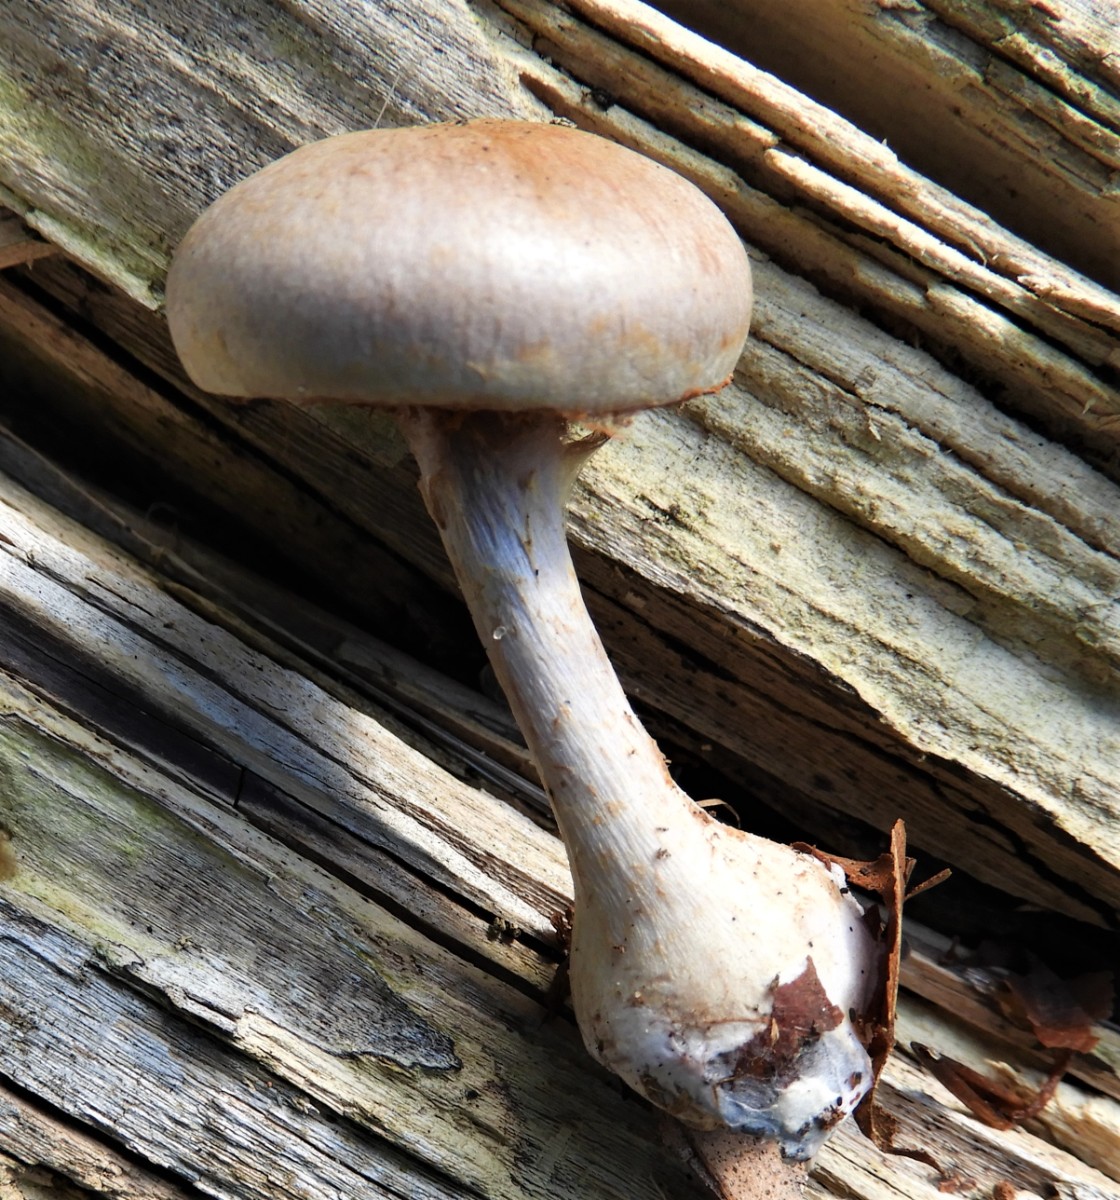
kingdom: Fungi
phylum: Basidiomycota
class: Agaricomycetes
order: Agaricales
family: Cortinariaceae
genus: Cortinarius
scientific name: Cortinarius
